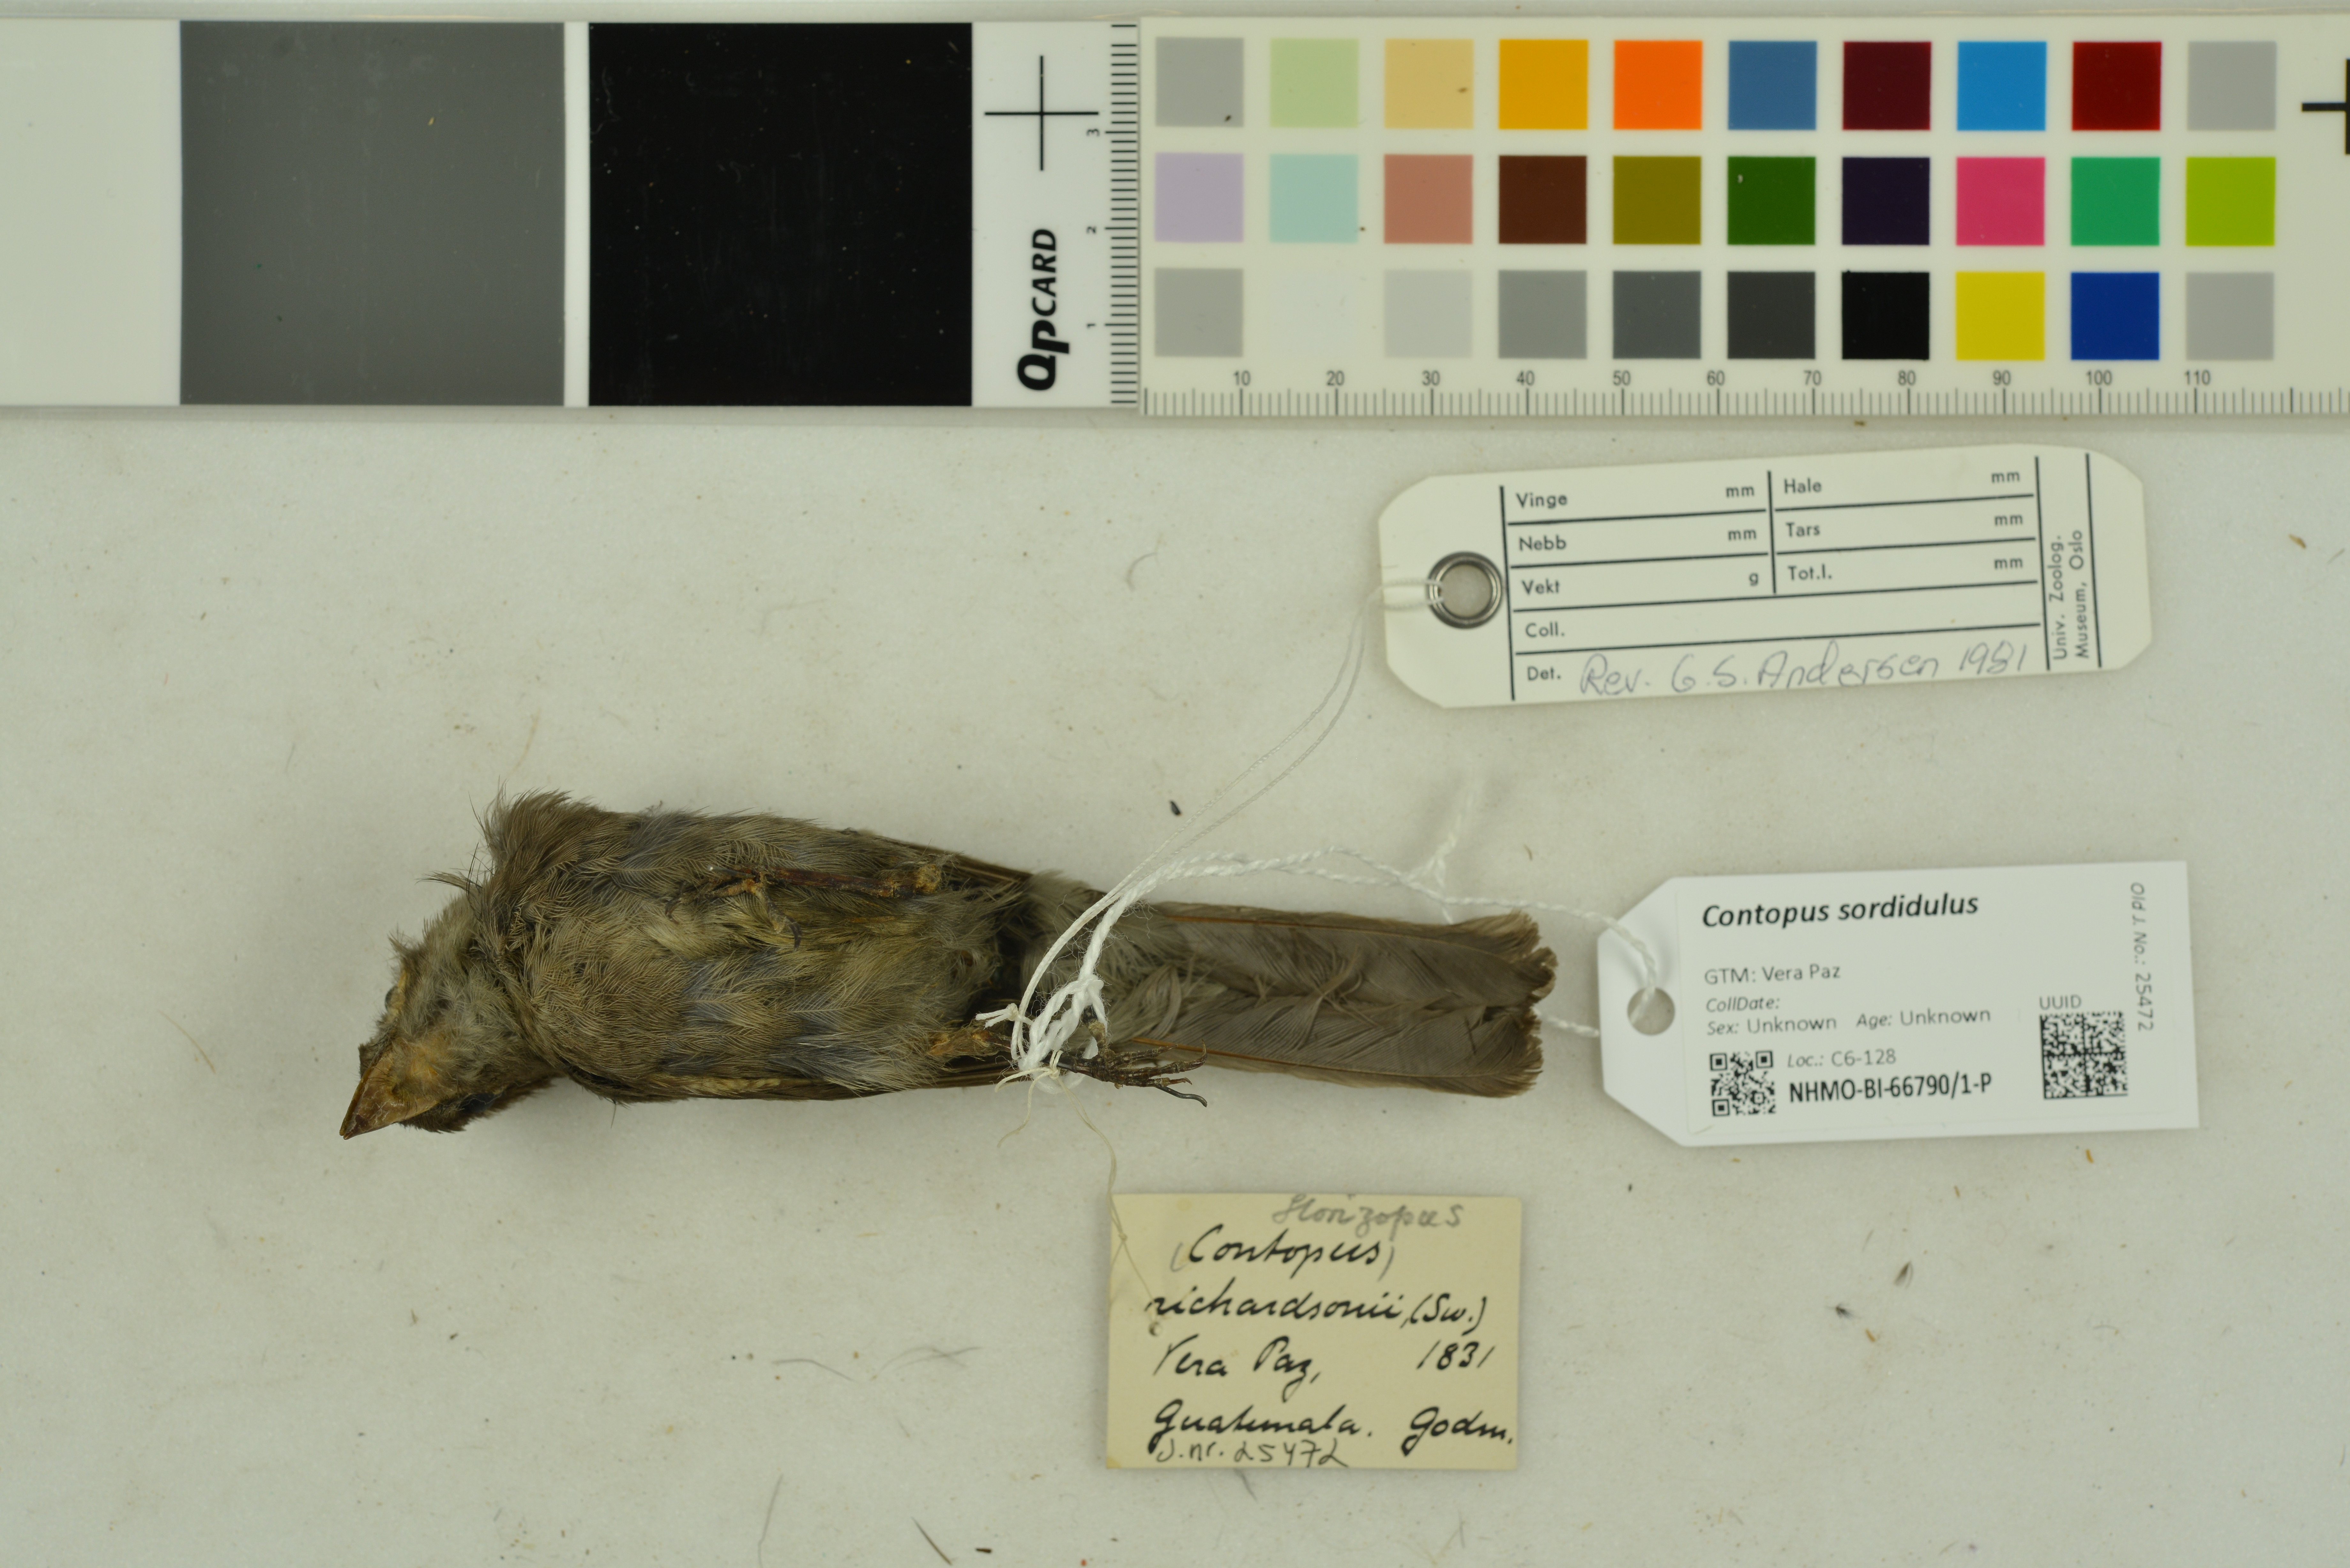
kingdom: Animalia
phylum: Chordata
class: Aves
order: Passeriformes
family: Tyrannidae
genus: Contopus
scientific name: Contopus sordidulus
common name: Western wood-pewee
